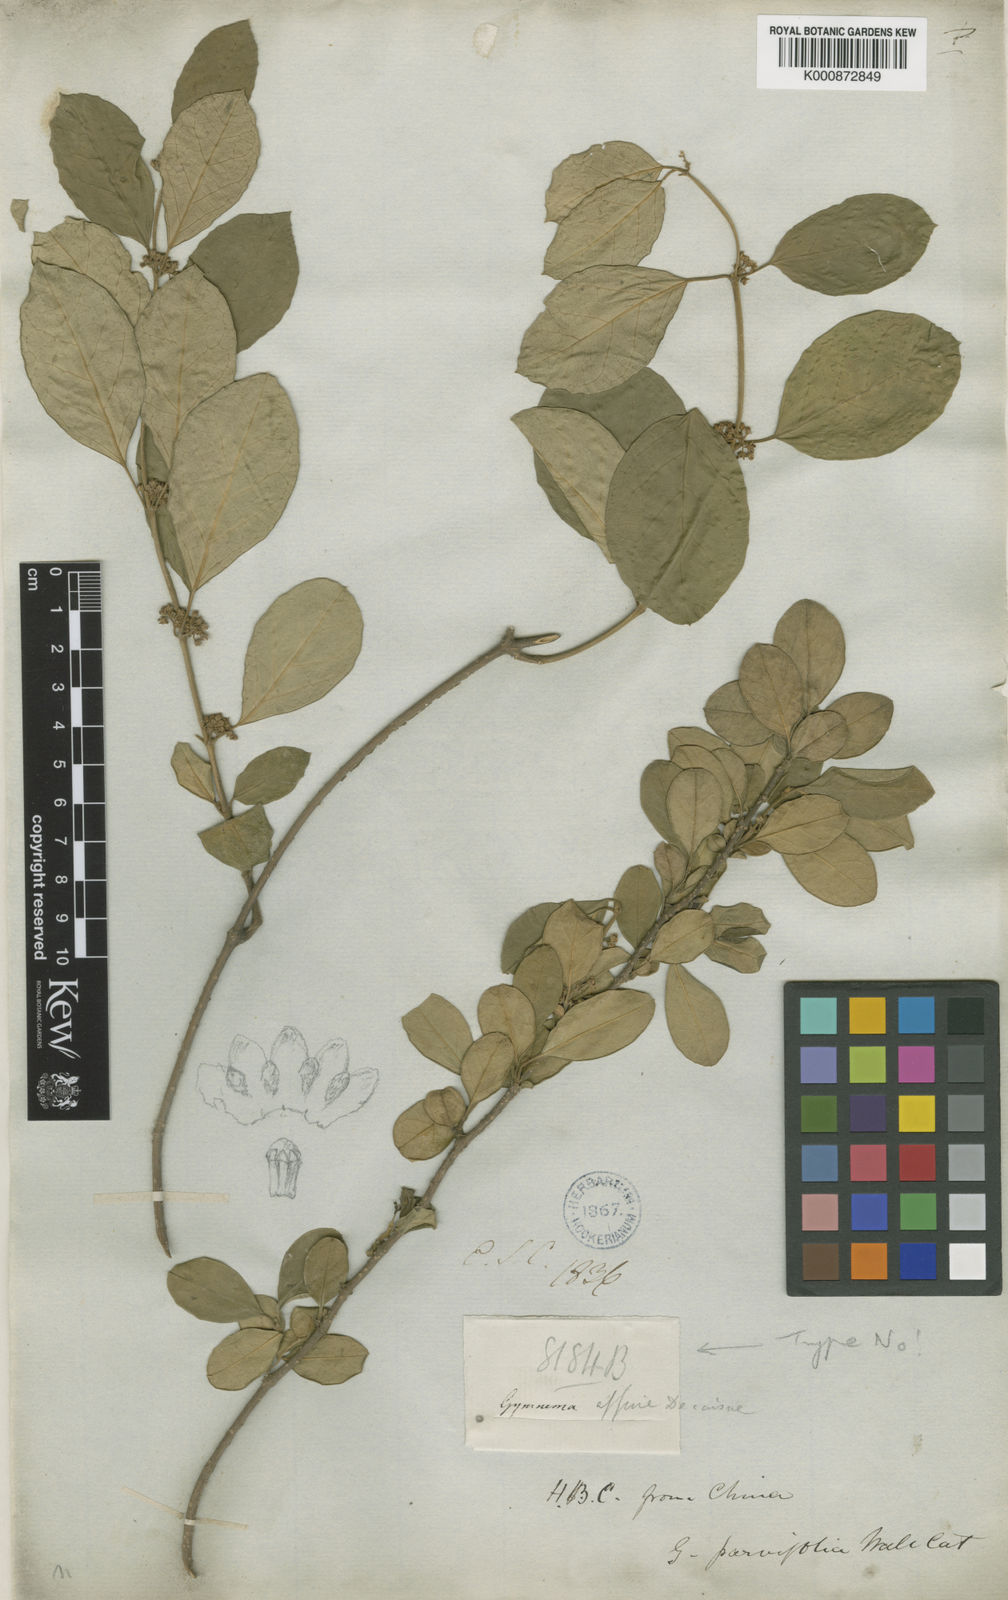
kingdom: Plantae
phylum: Tracheophyta
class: Magnoliopsida
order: Gentianales
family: Apocynaceae
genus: Gymnema
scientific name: Gymnema sylvestre
